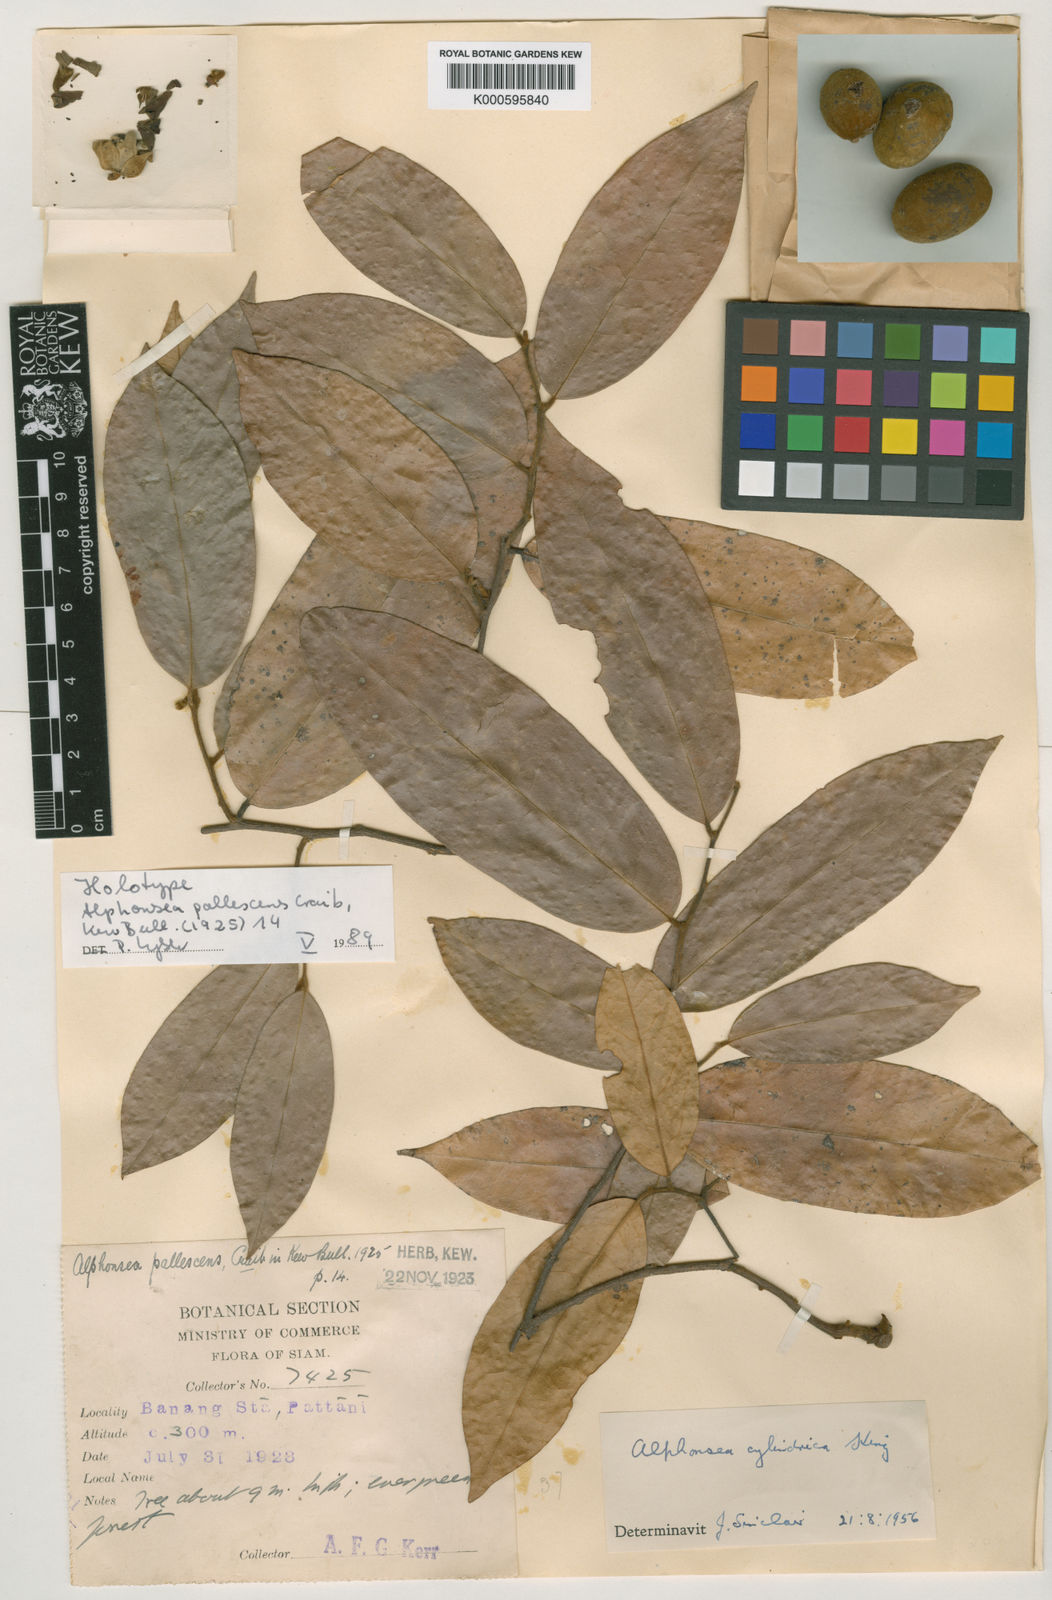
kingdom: Plantae
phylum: Tracheophyta
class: Magnoliopsida
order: Magnoliales
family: Annonaceae
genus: Alphonsea
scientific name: Alphonsea cylindrica
